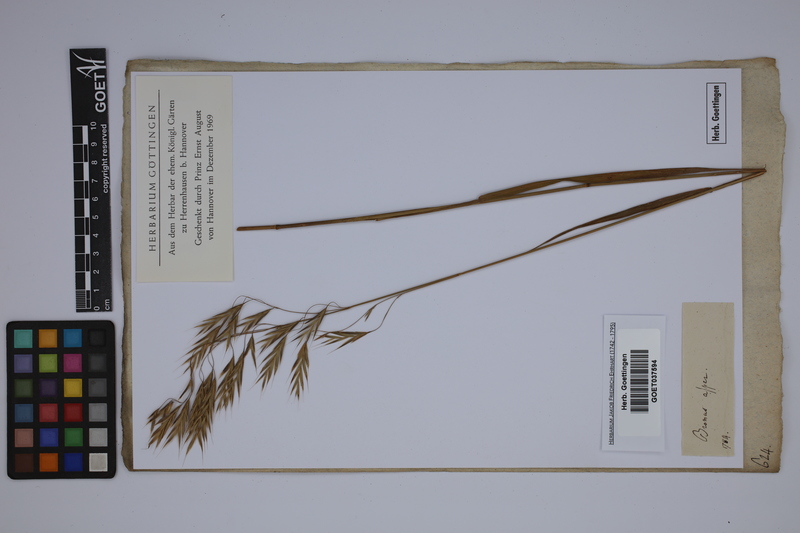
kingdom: Plantae
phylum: Tracheophyta
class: Liliopsida
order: Poales
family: Poaceae
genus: Bromus
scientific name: Bromus erectus
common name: Erect brome
